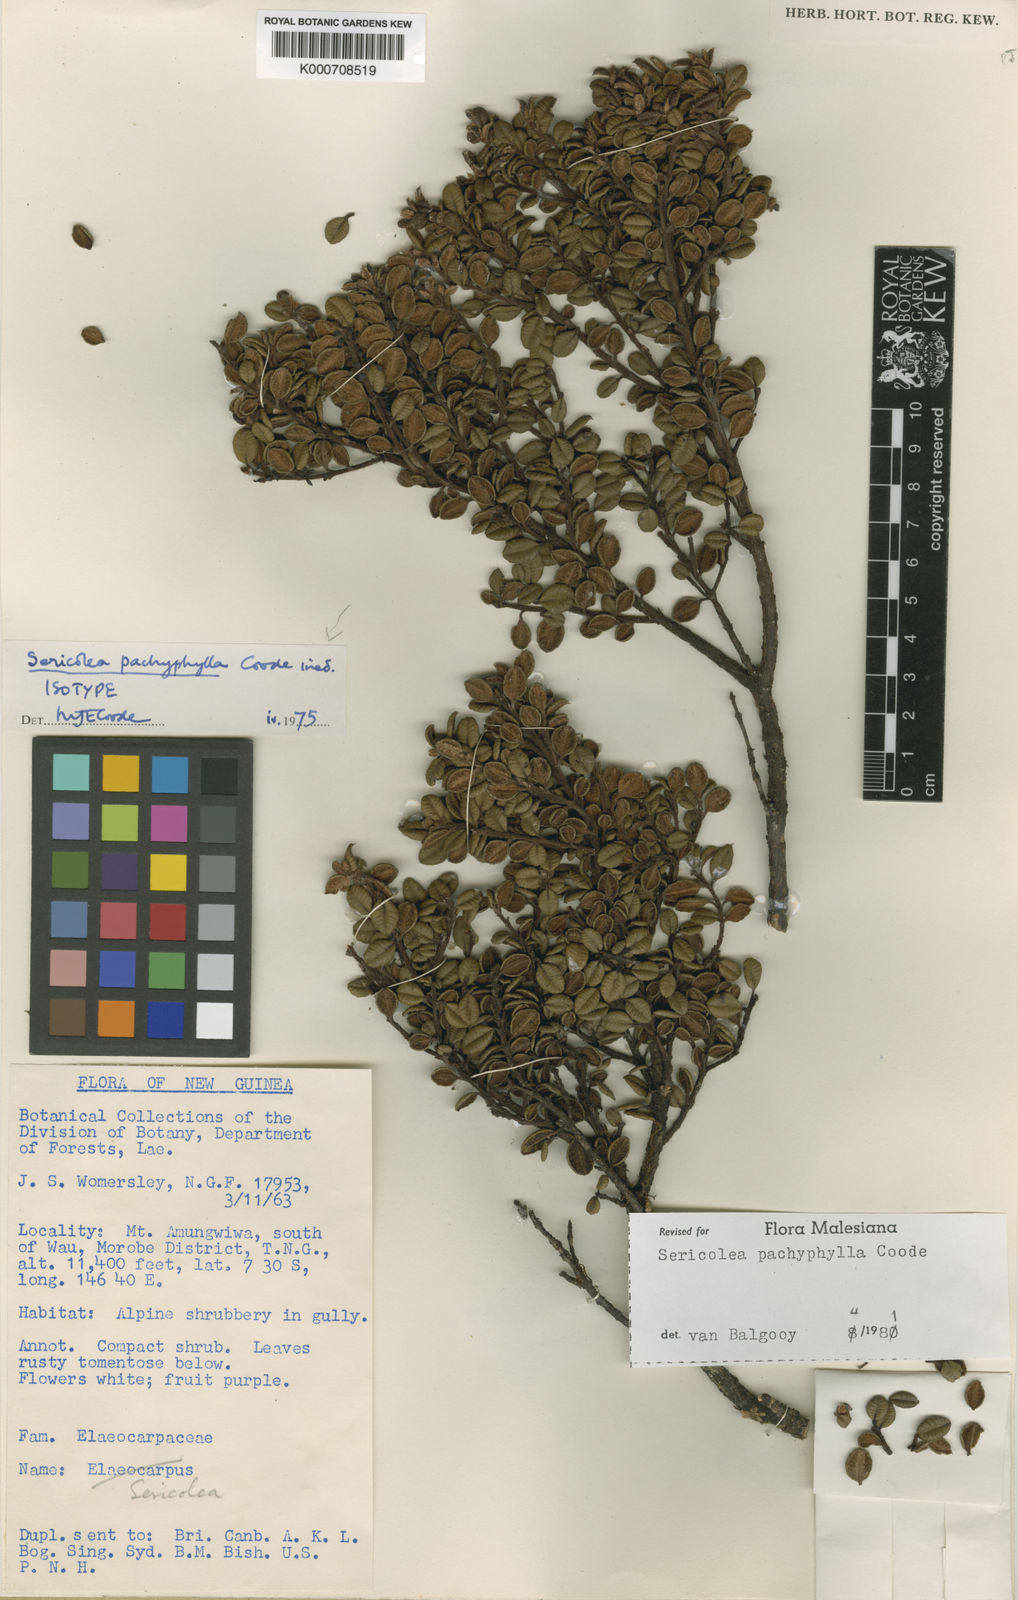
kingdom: Plantae
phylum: Tracheophyta
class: Magnoliopsida
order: Oxalidales
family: Elaeocarpaceae
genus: Sericolea
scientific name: Sericolea pachyphylla
